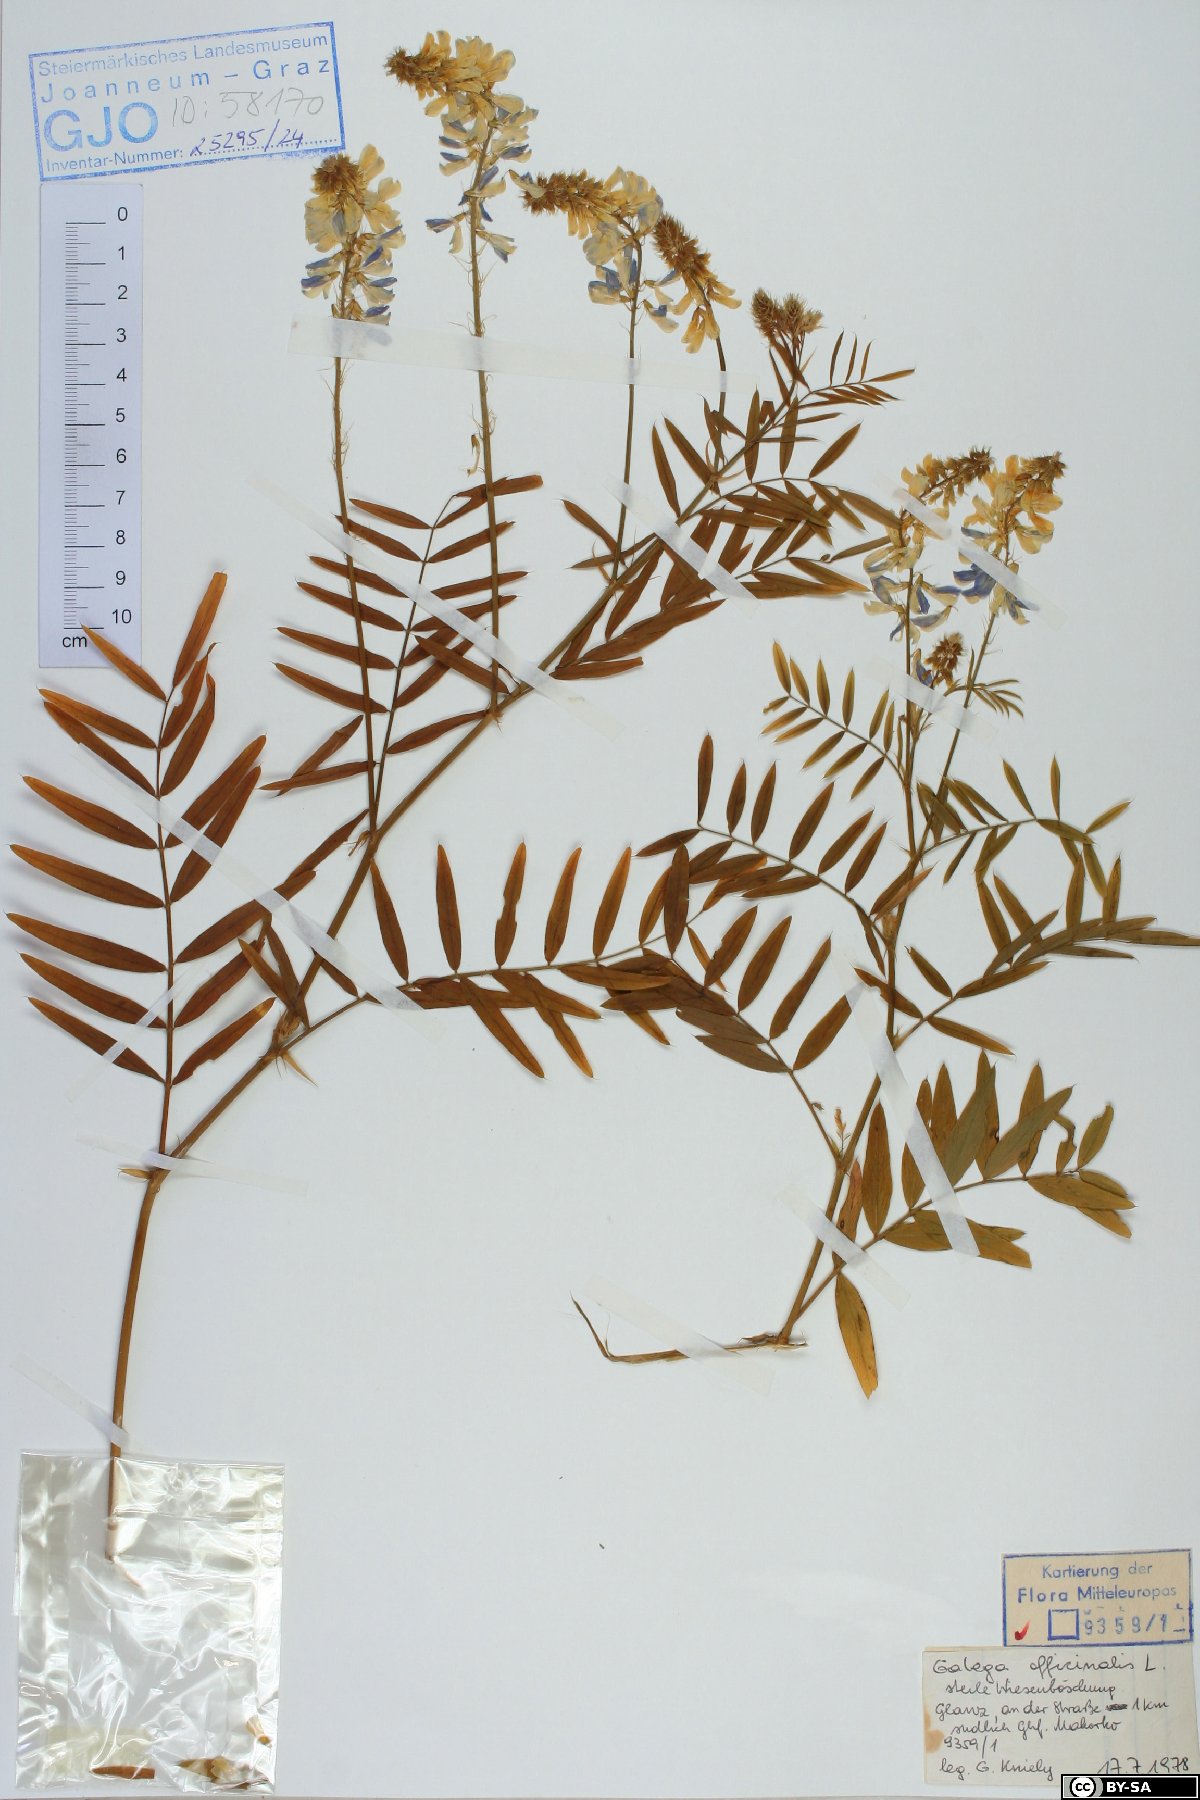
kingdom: Plantae
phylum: Tracheophyta
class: Magnoliopsida
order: Fabales
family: Fabaceae
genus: Galega
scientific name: Galega officinalis
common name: Goat's-rue
